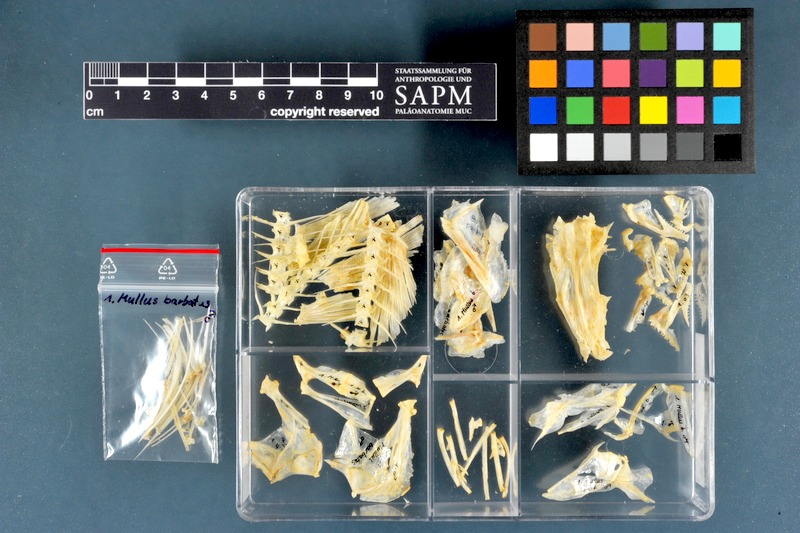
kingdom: Animalia
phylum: Chordata
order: Perciformes
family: Mullidae
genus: Mullus
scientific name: Mullus barbatus
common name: Blunt-snouted mullet
